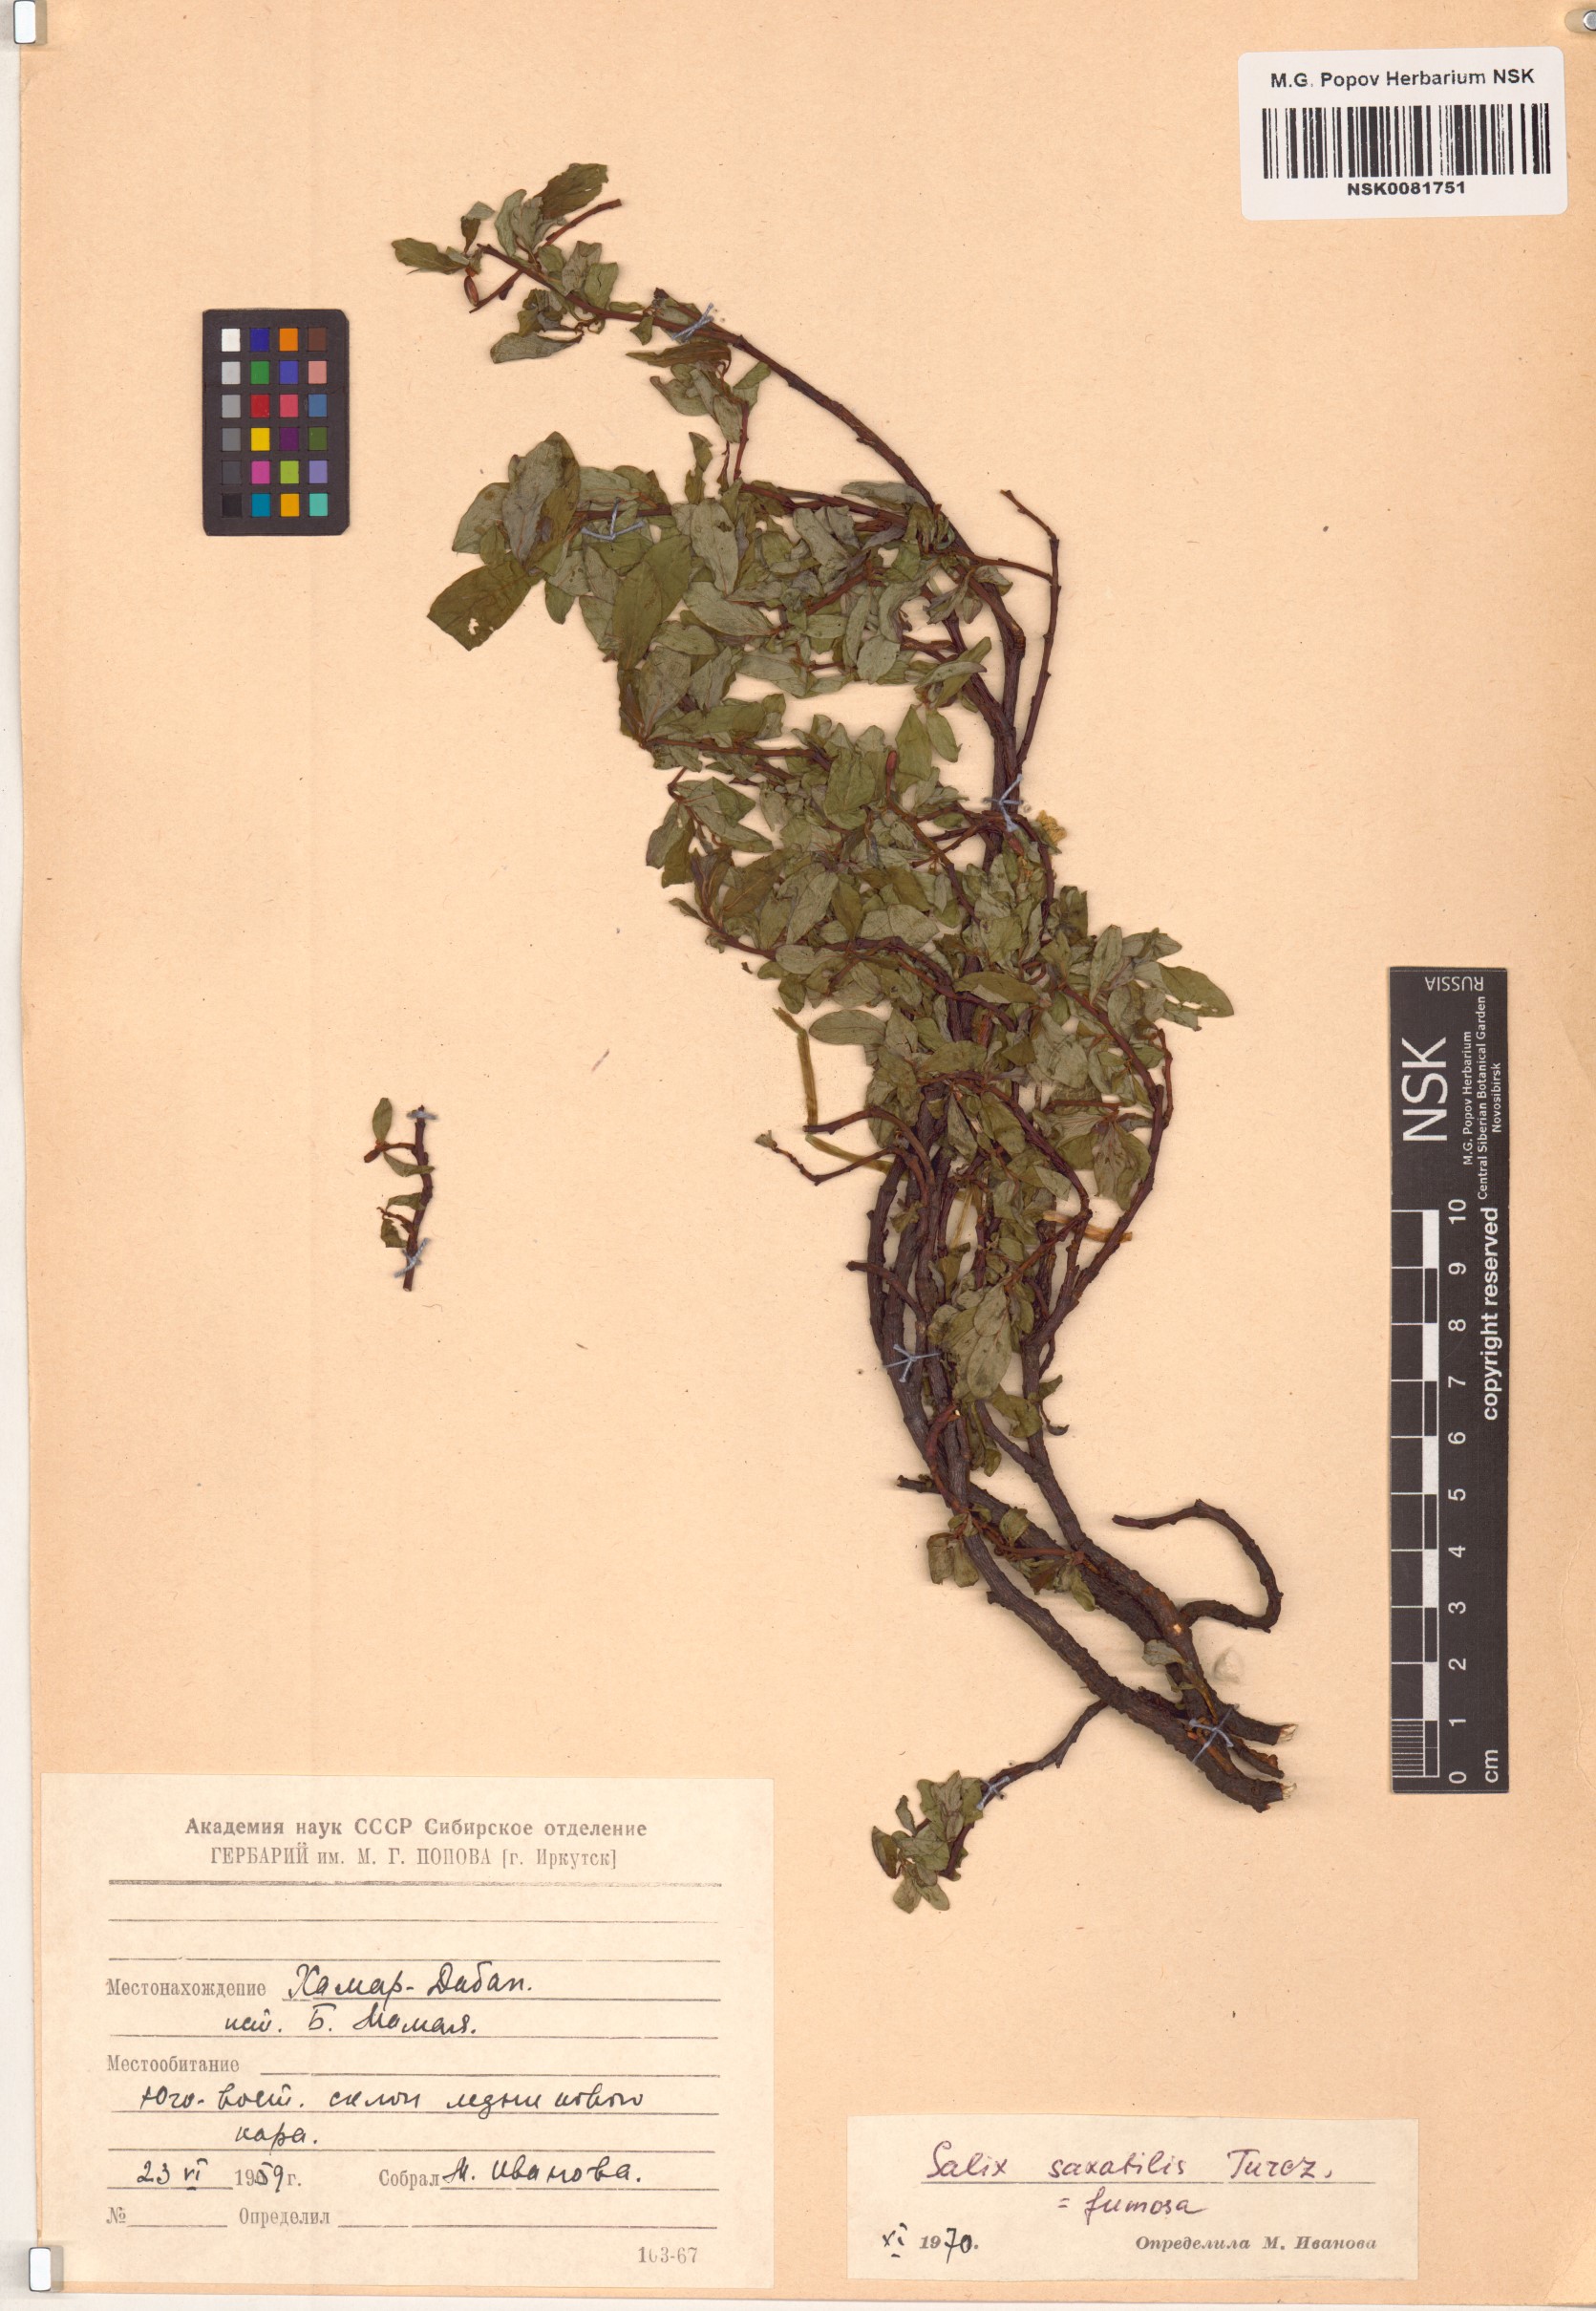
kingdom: Plantae
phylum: Tracheophyta
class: Magnoliopsida
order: Malpighiales
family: Salicaceae
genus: Salix
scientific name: Salix saxatilis
